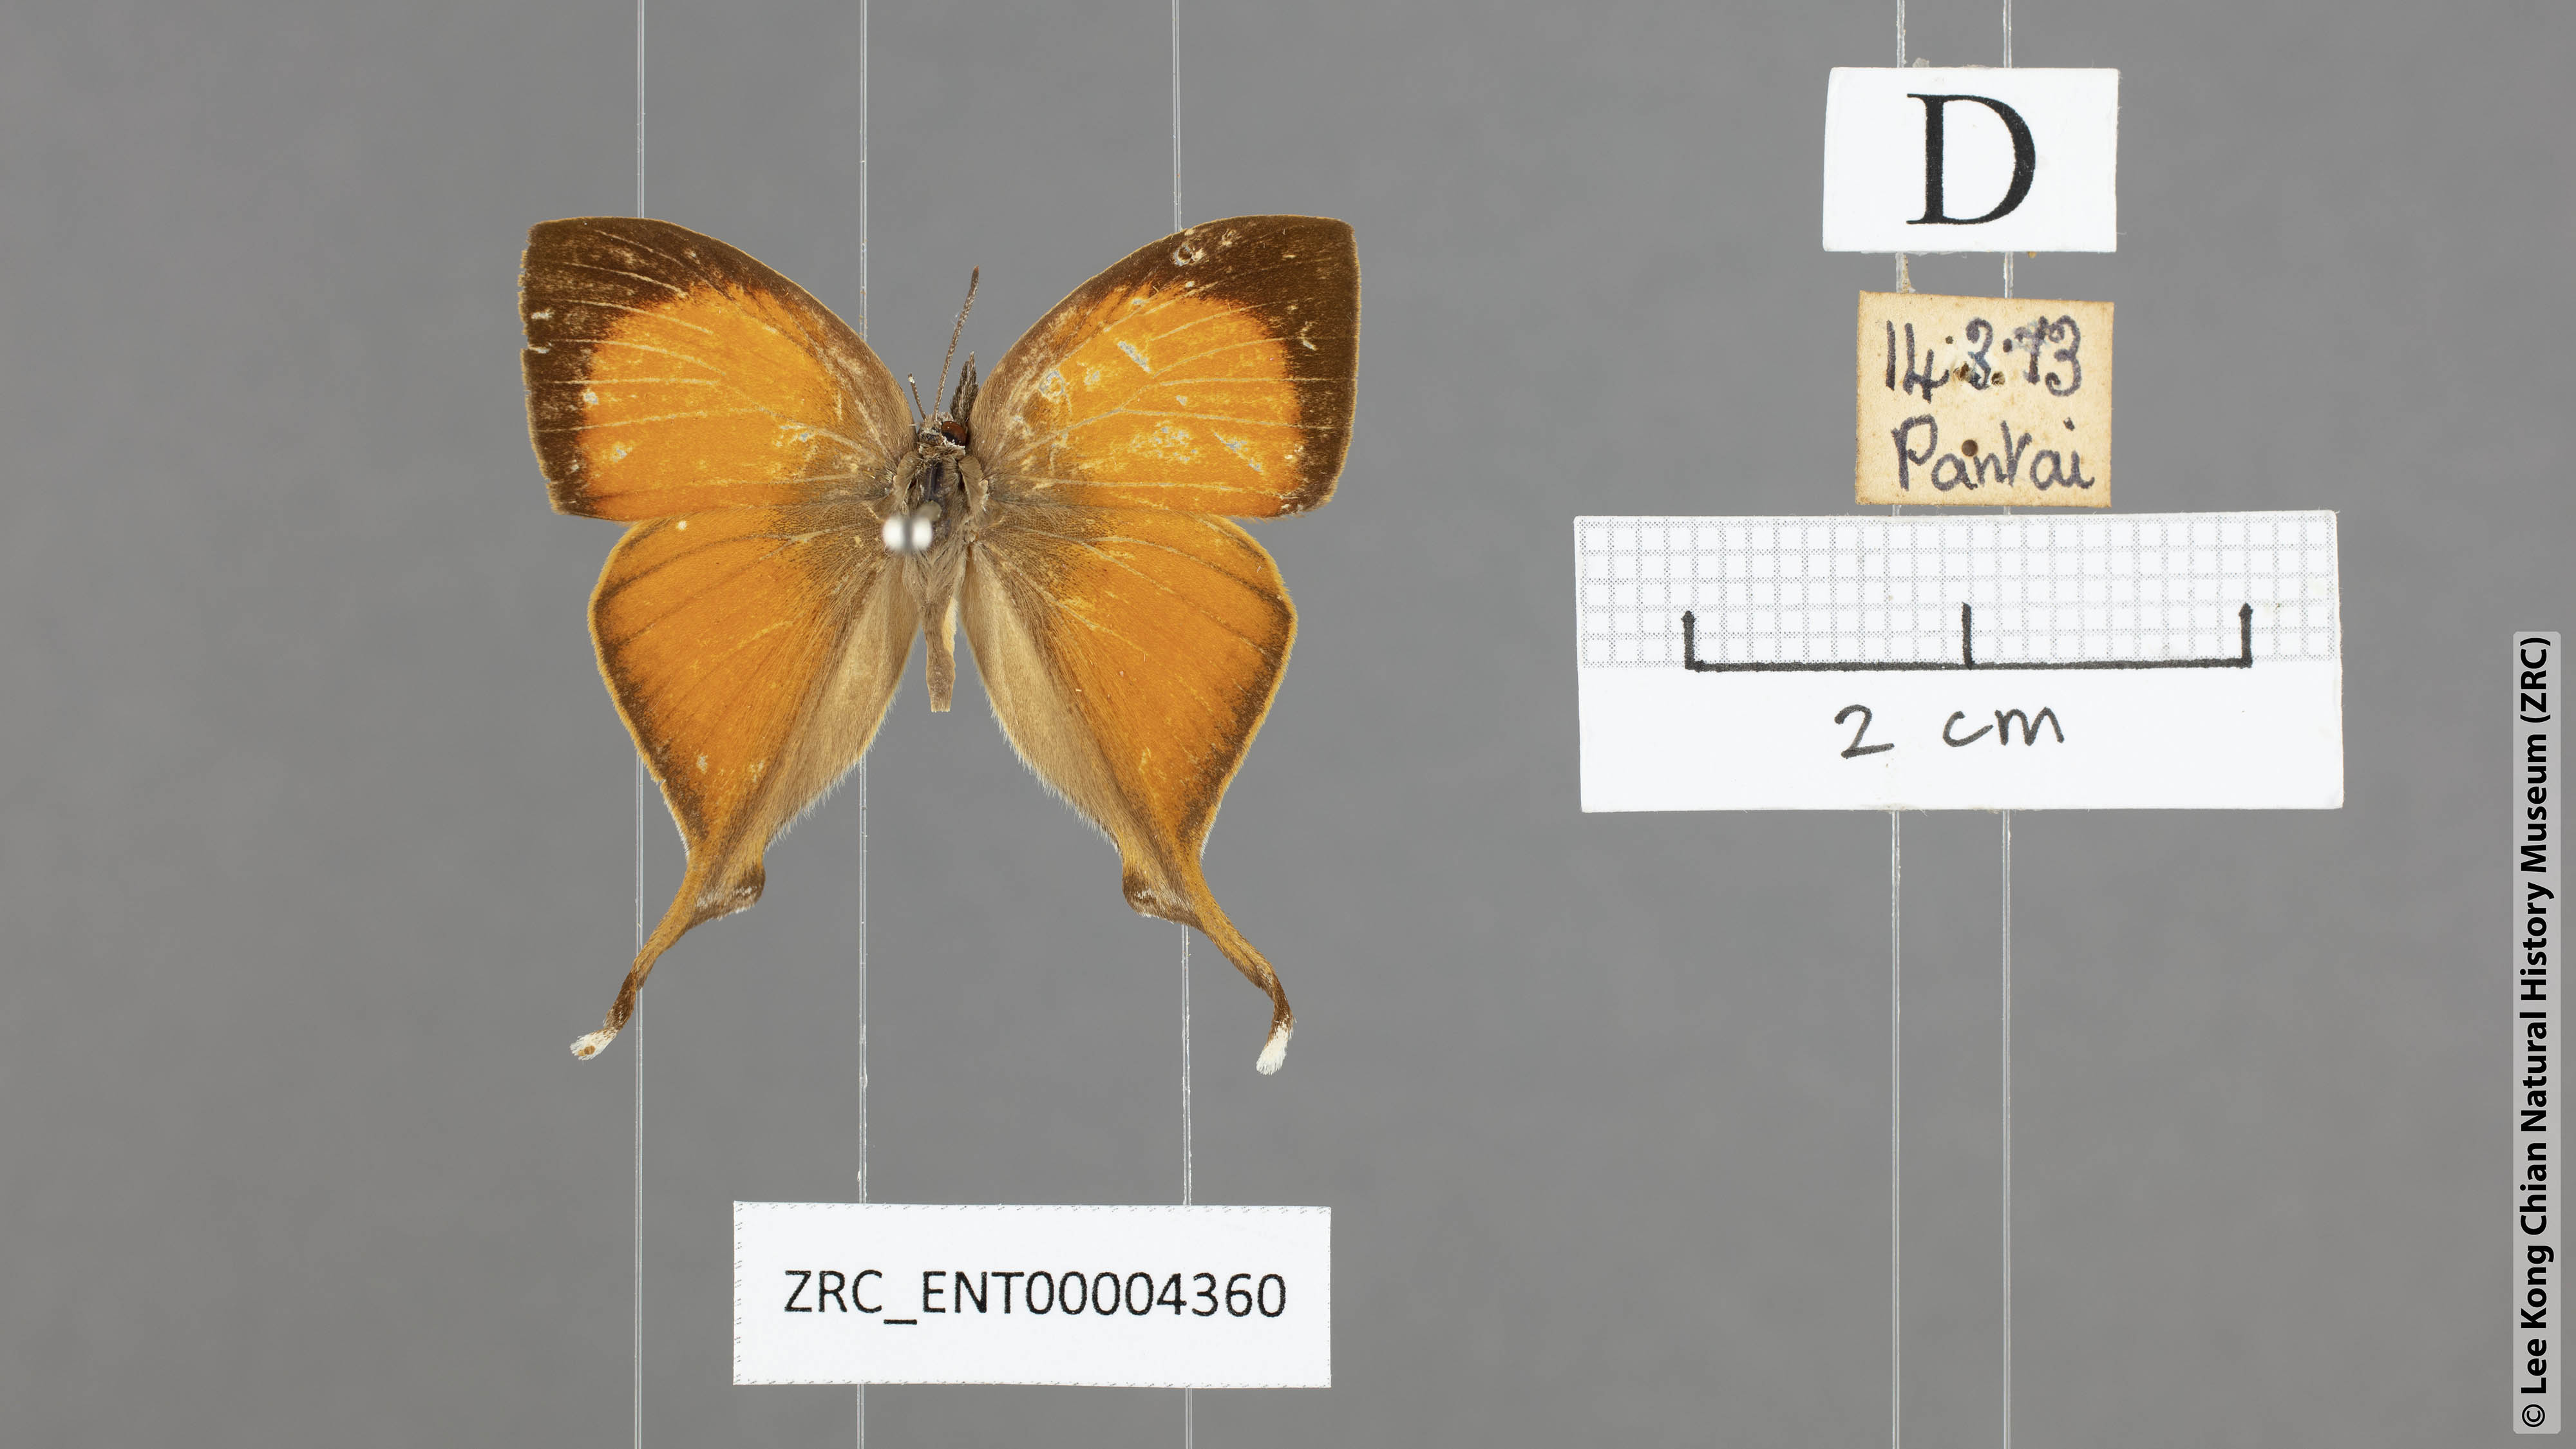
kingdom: Animalia
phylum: Arthropoda
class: Insecta
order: Lepidoptera
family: Lycaenidae
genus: Loxura
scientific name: Loxura atymnus
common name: Common yamfly
